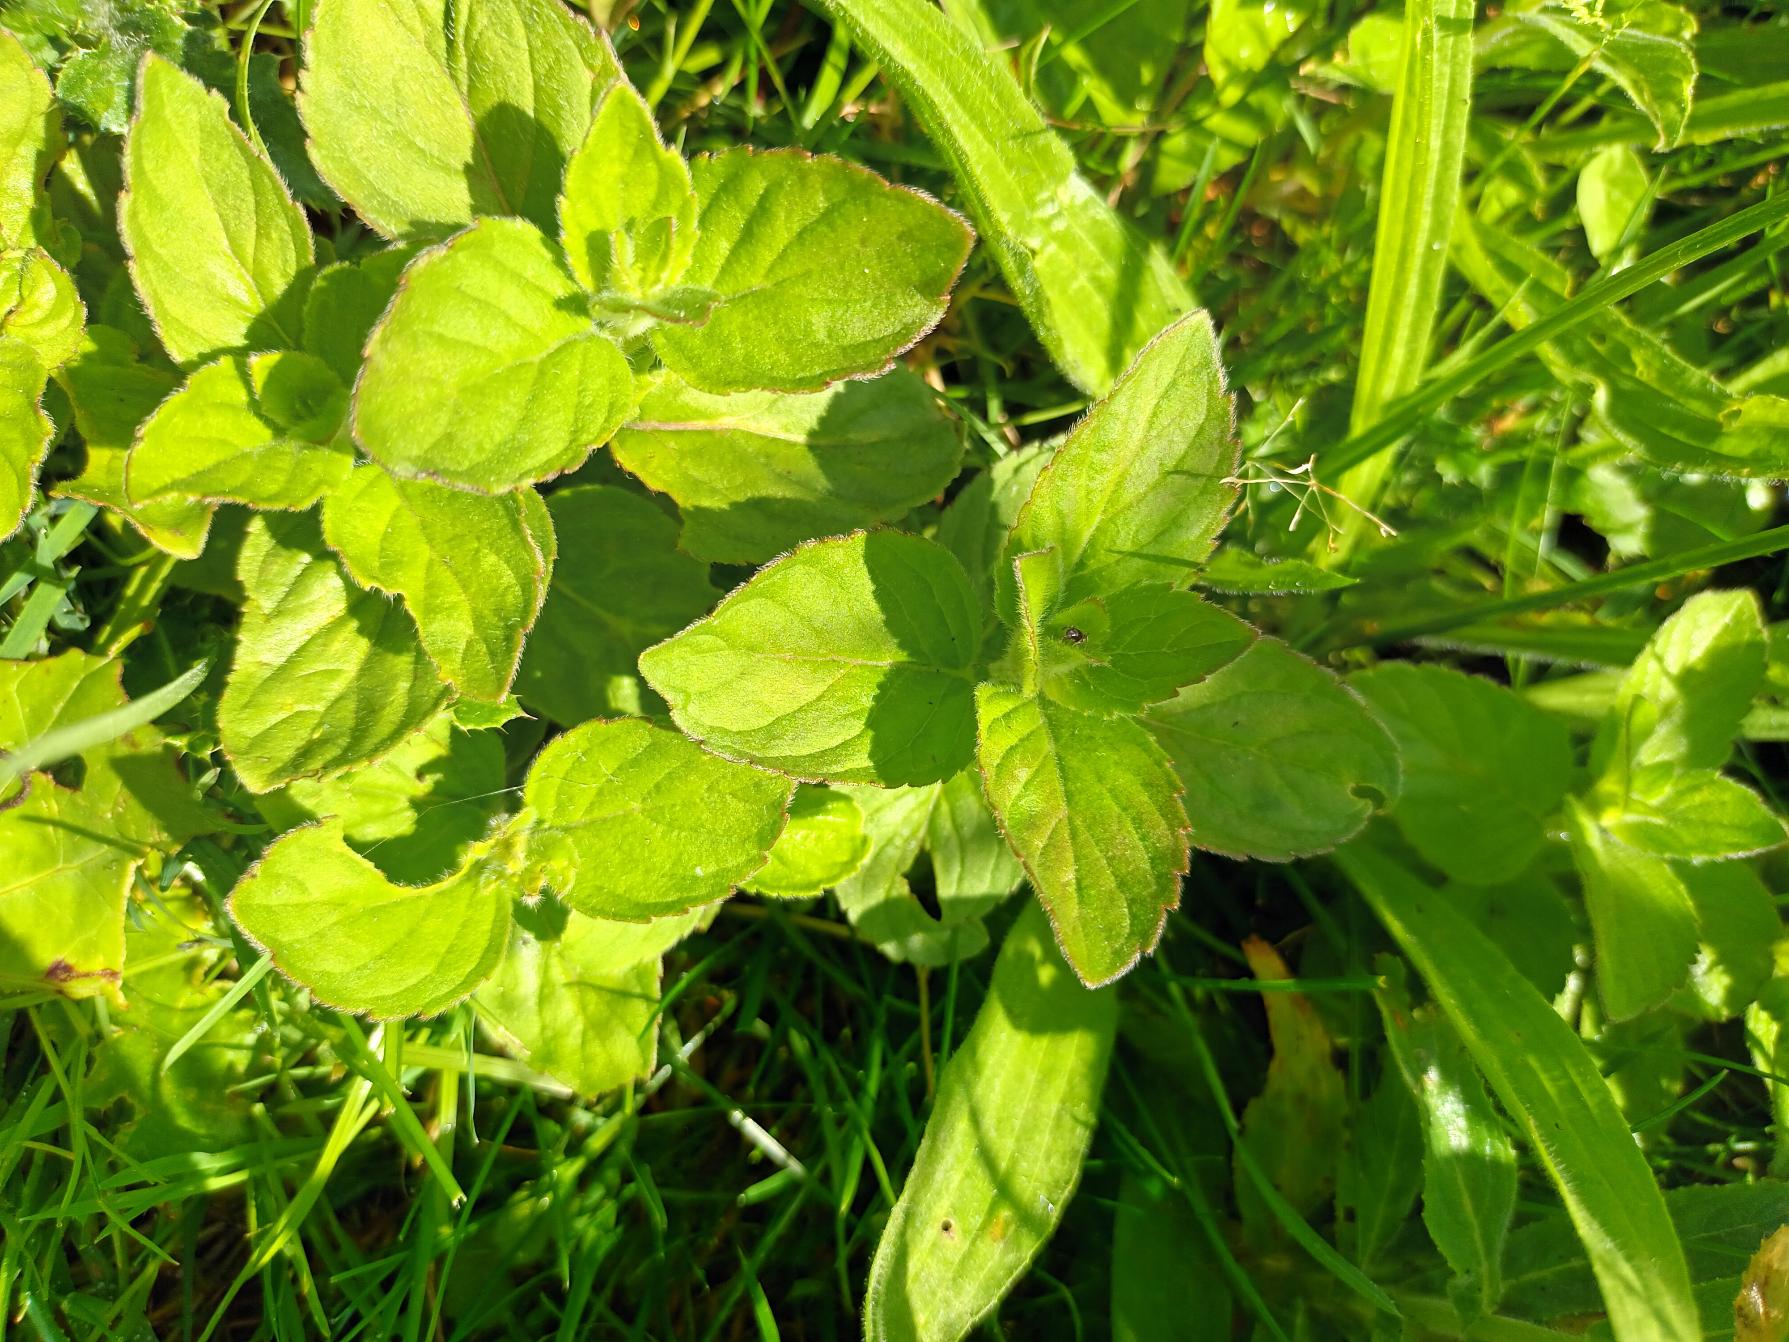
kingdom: Plantae
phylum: Tracheophyta
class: Magnoliopsida
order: Lamiales
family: Lamiaceae
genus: Mentha
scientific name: Mentha aquatica
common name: Vand-mynte
